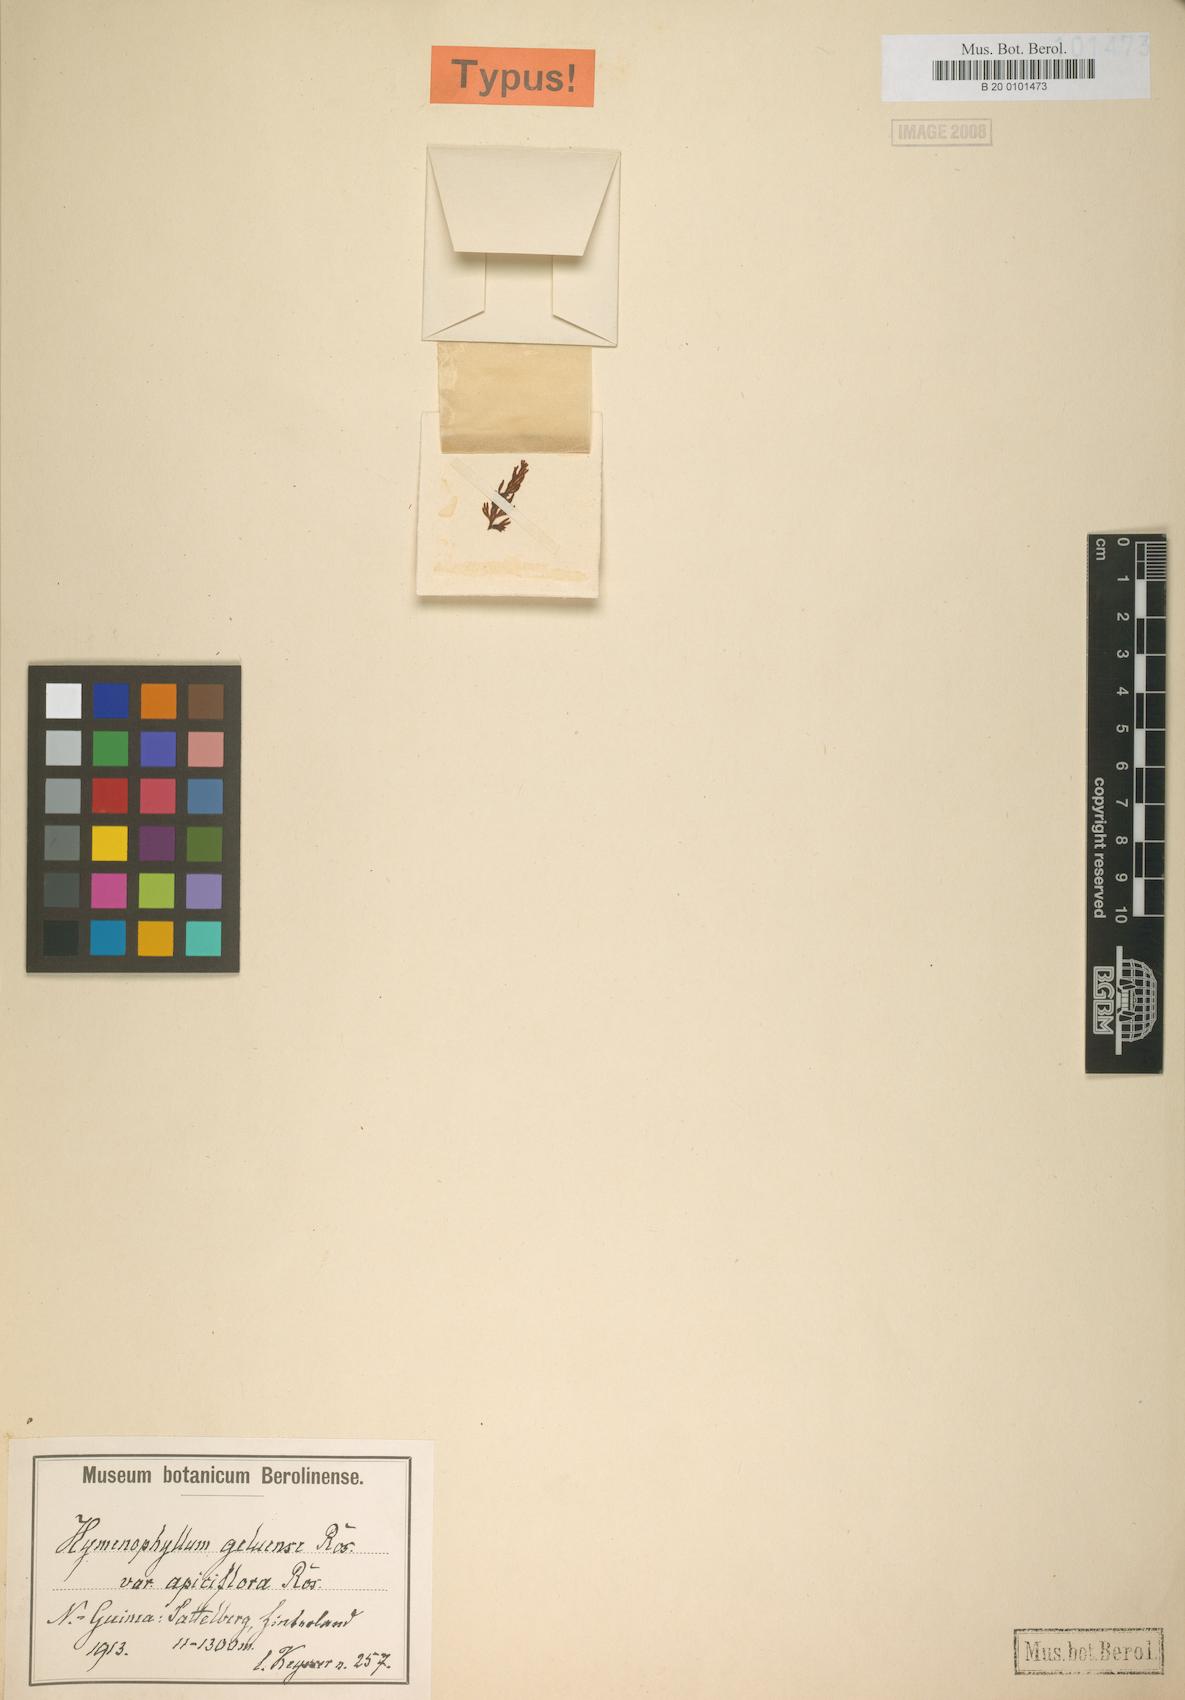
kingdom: Plantae
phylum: Tracheophyta
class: Polypodiopsida
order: Hymenophyllales
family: Hymenophyllaceae
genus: Hymenophyllum
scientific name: Hymenophyllum geluense
